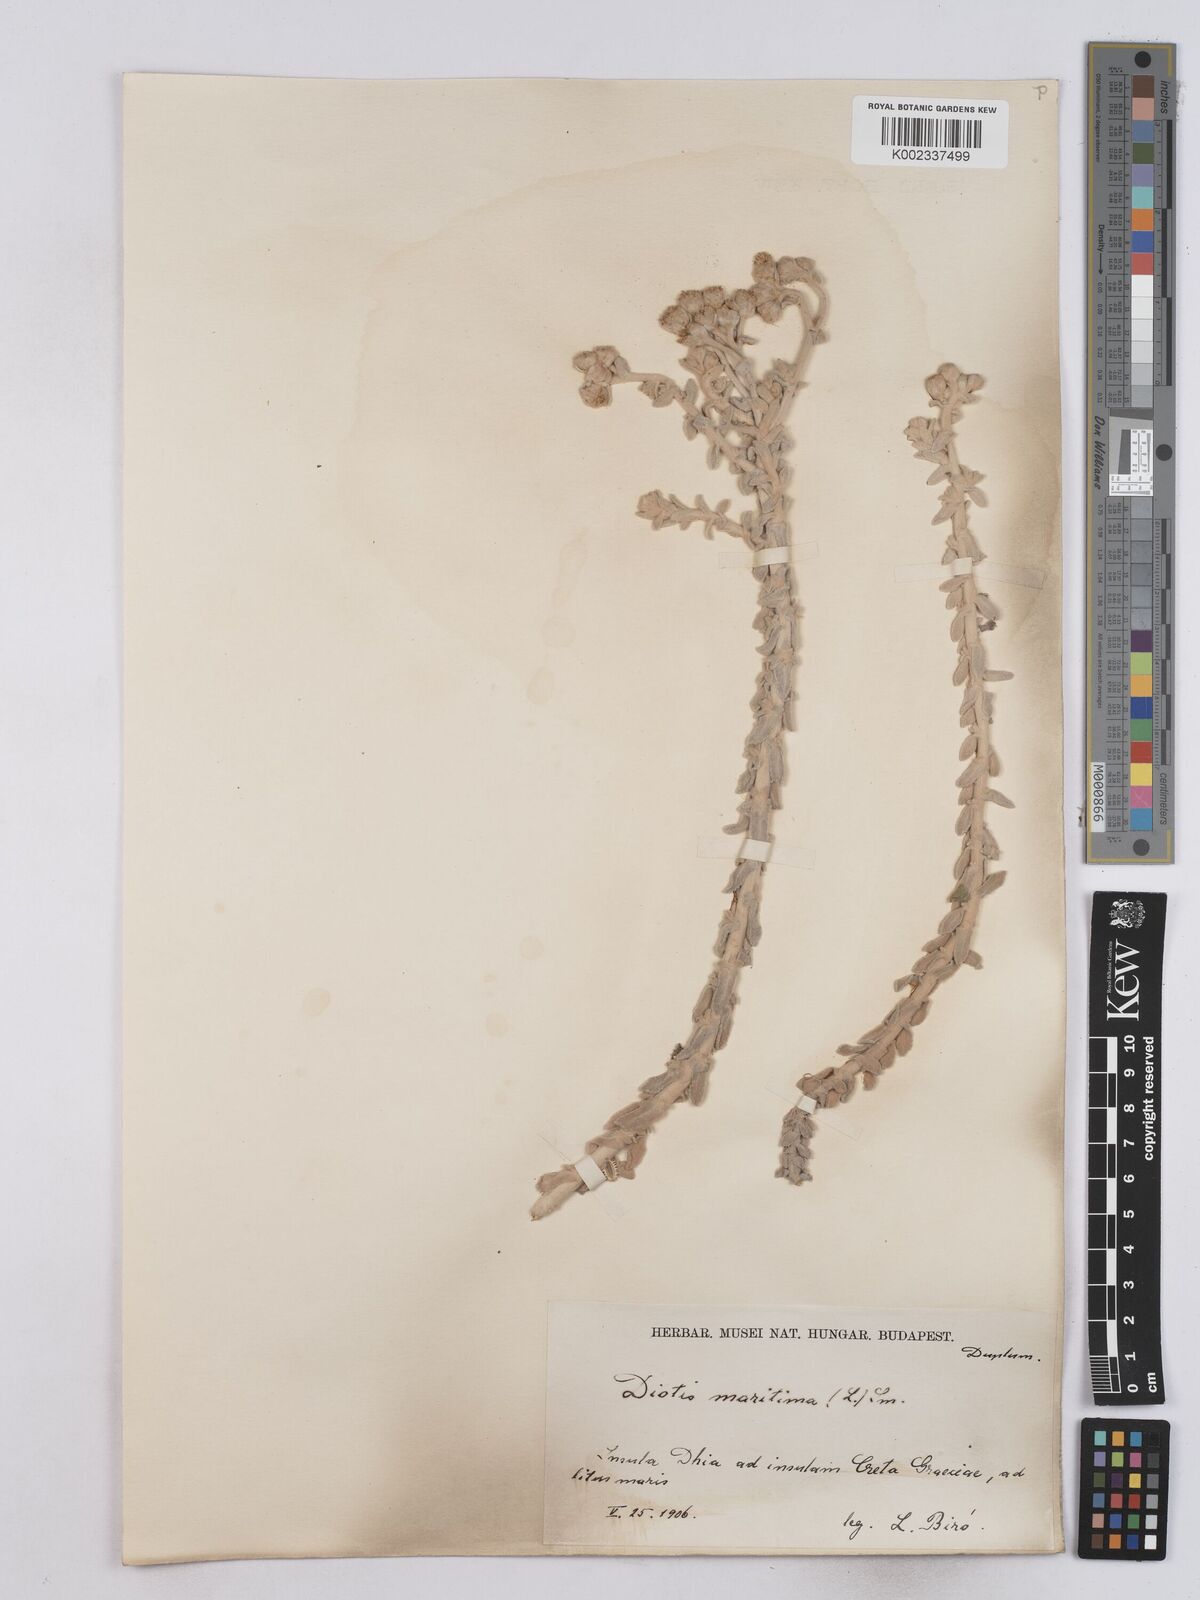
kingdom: Plantae
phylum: Tracheophyta
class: Magnoliopsida
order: Asterales
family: Asteraceae
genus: Achillea
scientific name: Achillea maritima
